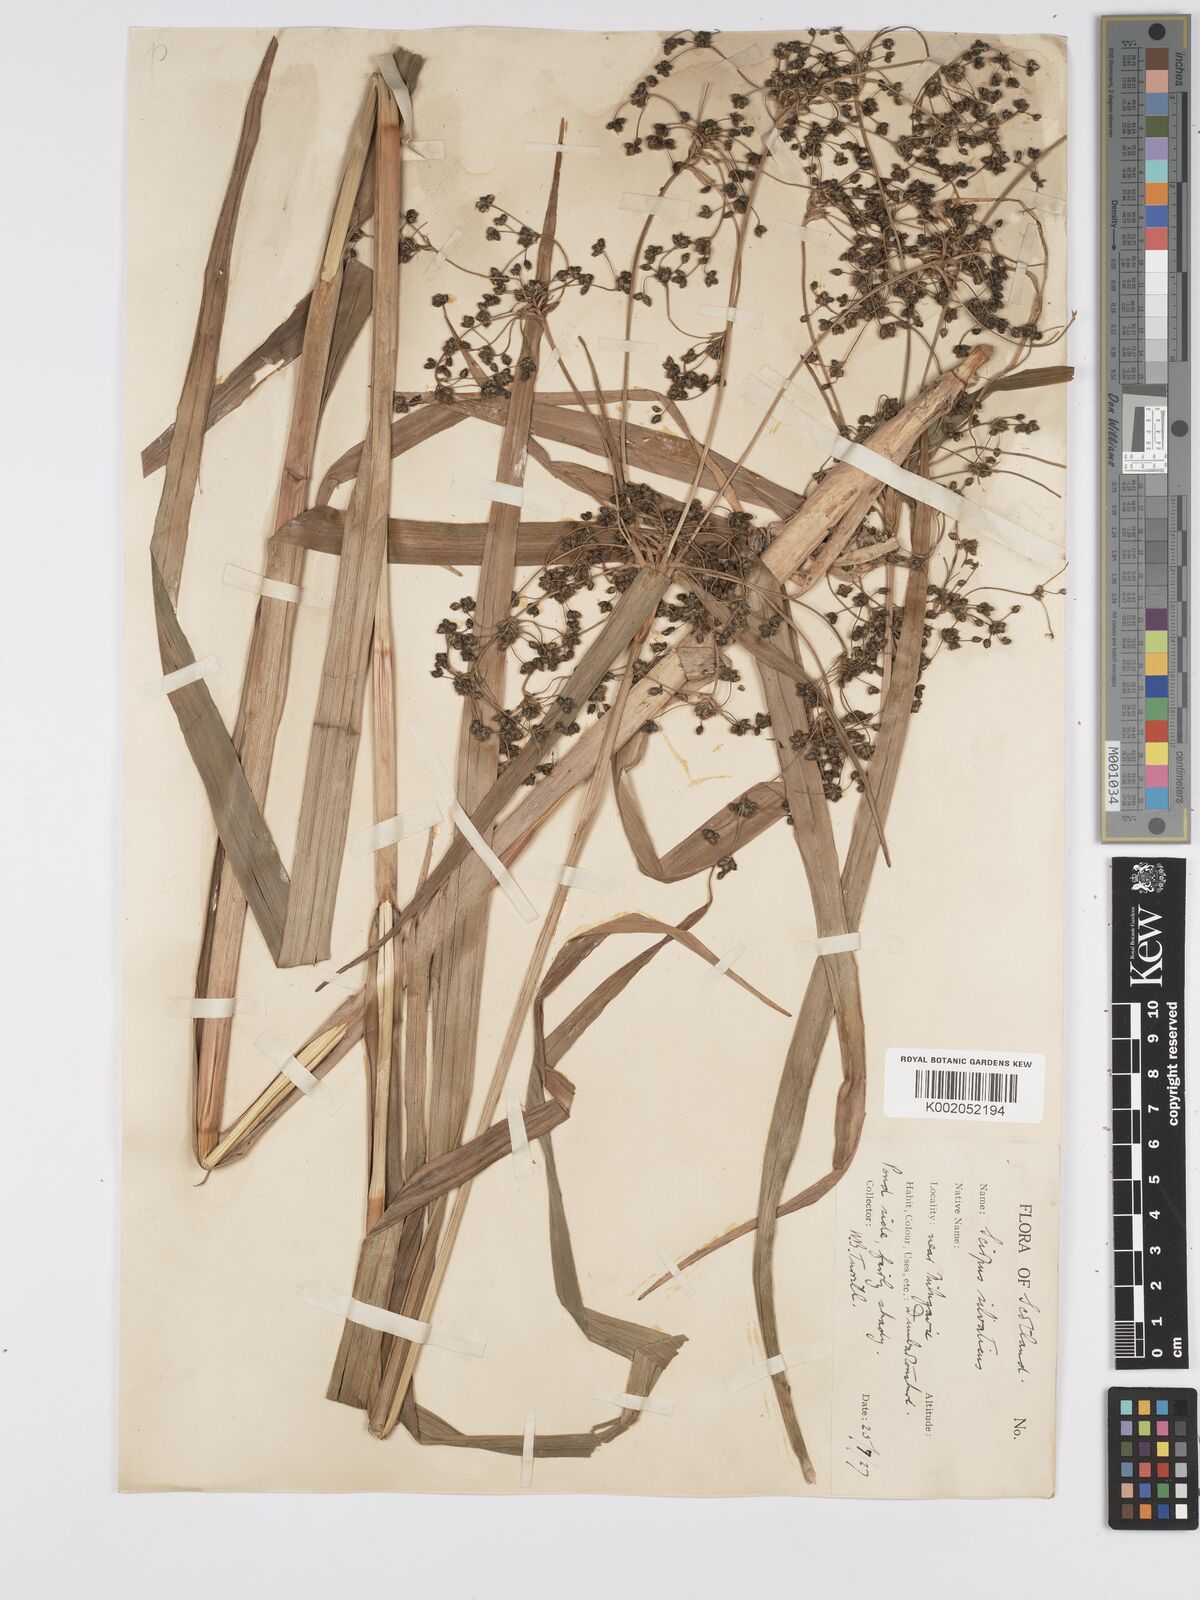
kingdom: Plantae
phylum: Tracheophyta
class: Liliopsida
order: Poales
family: Cyperaceae
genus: Scirpus
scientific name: Scirpus sylvaticus
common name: Wood club-rush
